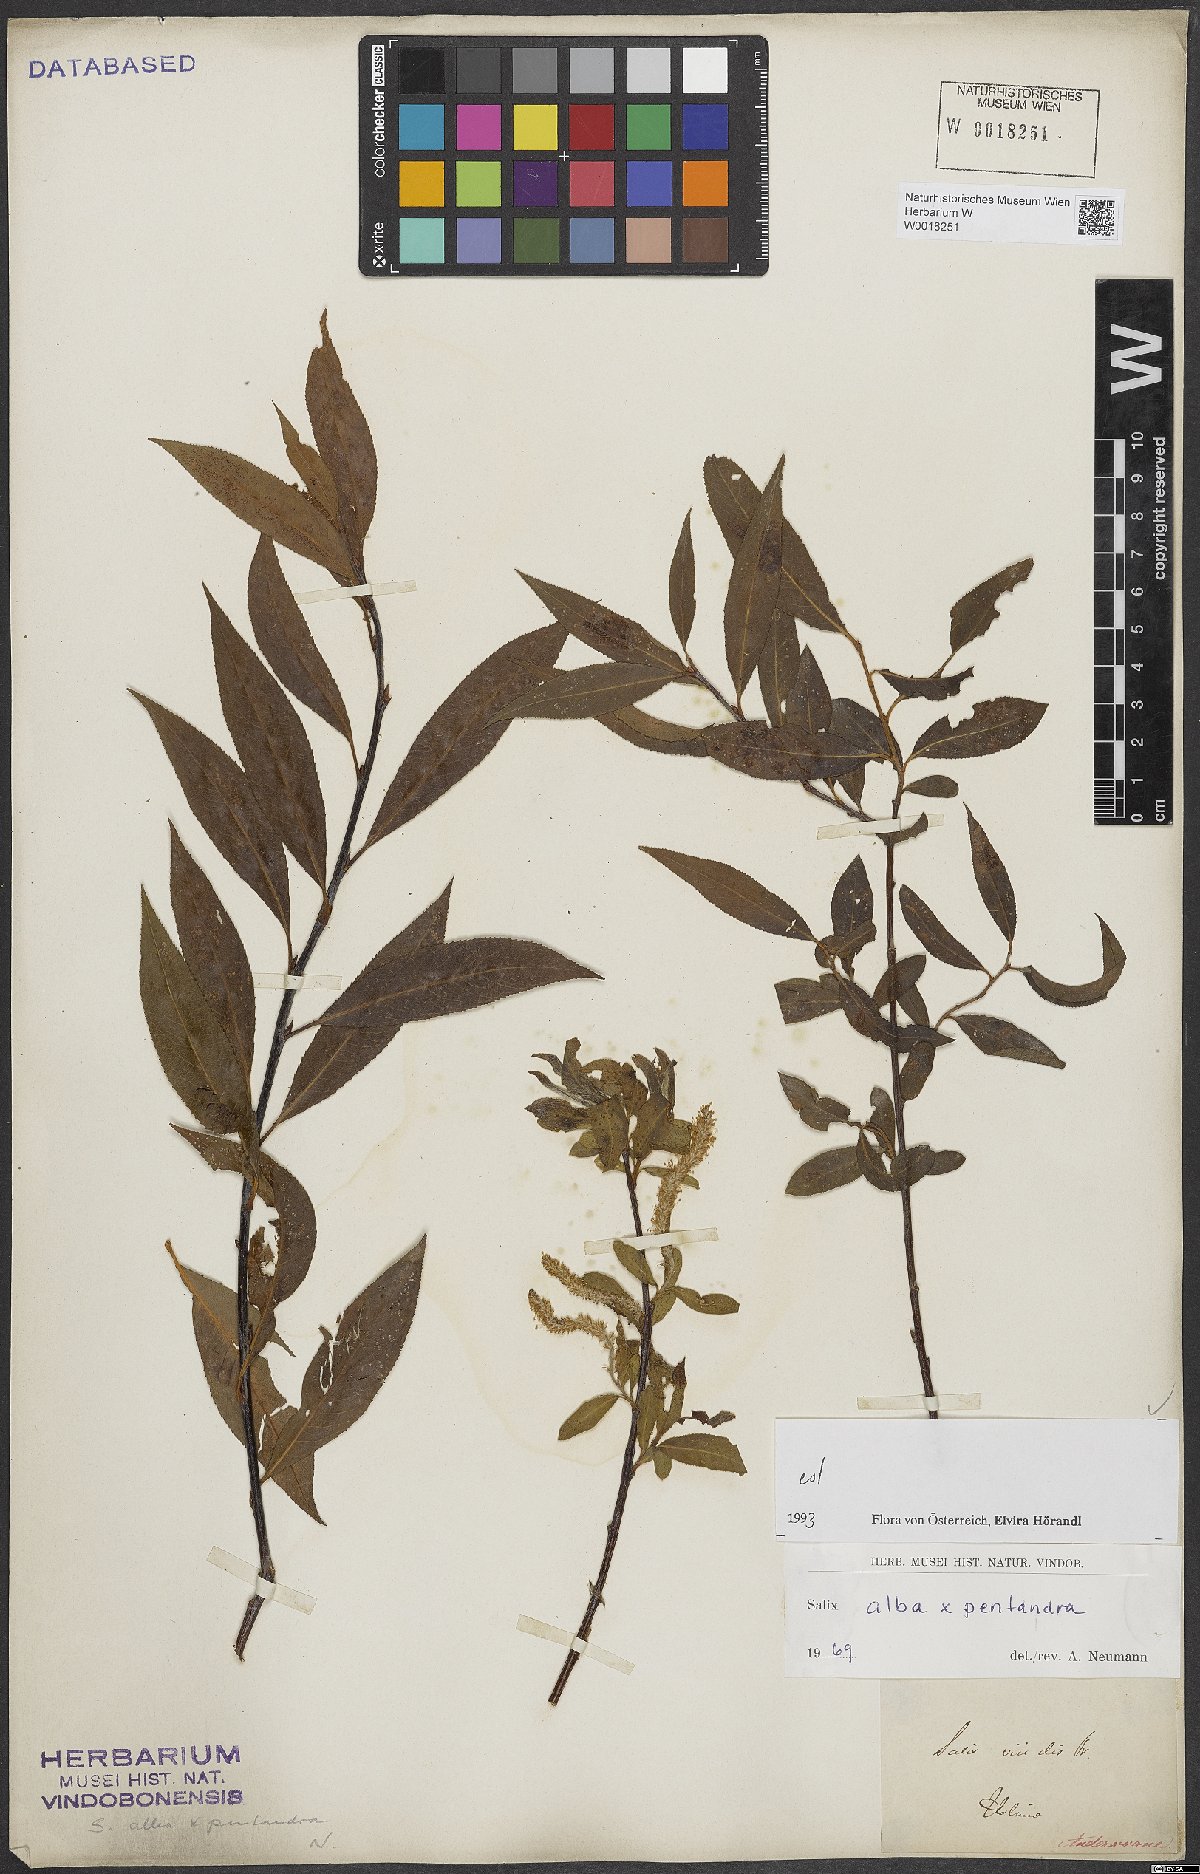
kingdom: Plantae
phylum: Tracheophyta
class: Magnoliopsida
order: Malpighiales
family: Salicaceae
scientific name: Salicaceae
